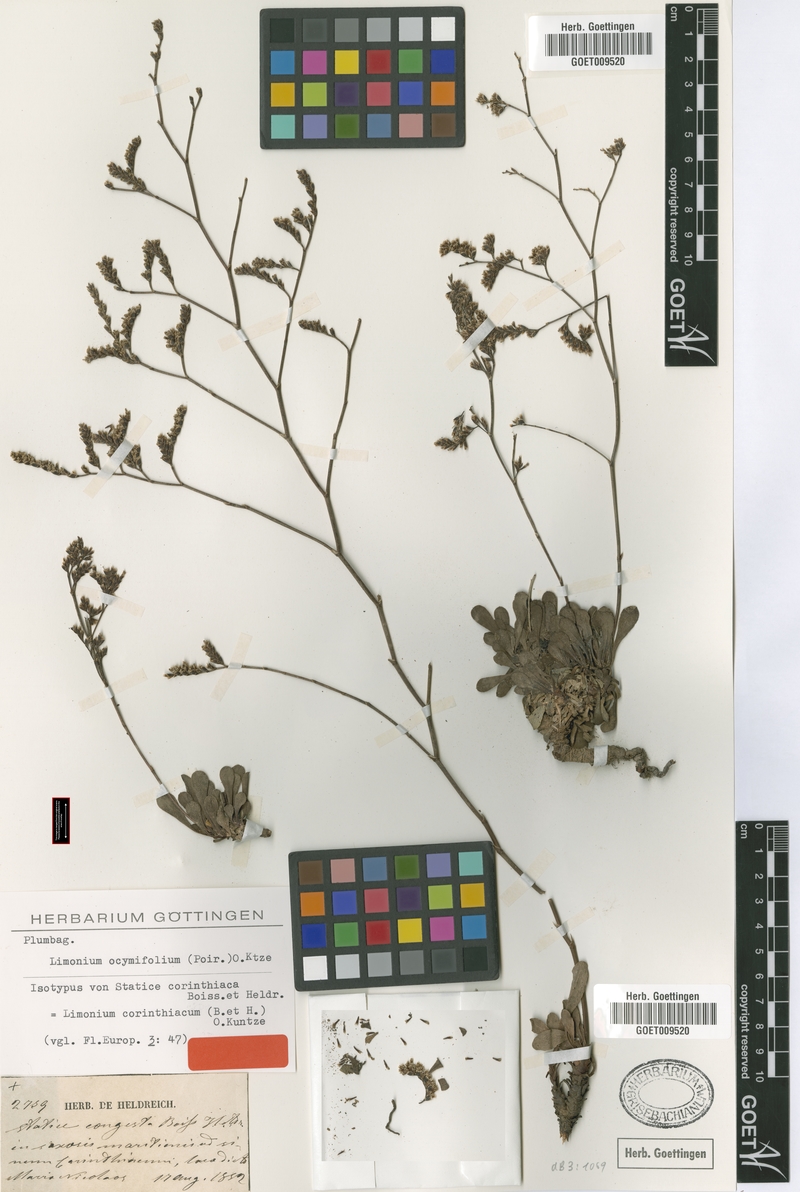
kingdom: Plantae
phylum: Tracheophyta
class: Magnoliopsida
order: Caryophyllales
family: Plumbaginaceae
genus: Limonium
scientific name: Limonium ocymifolium
